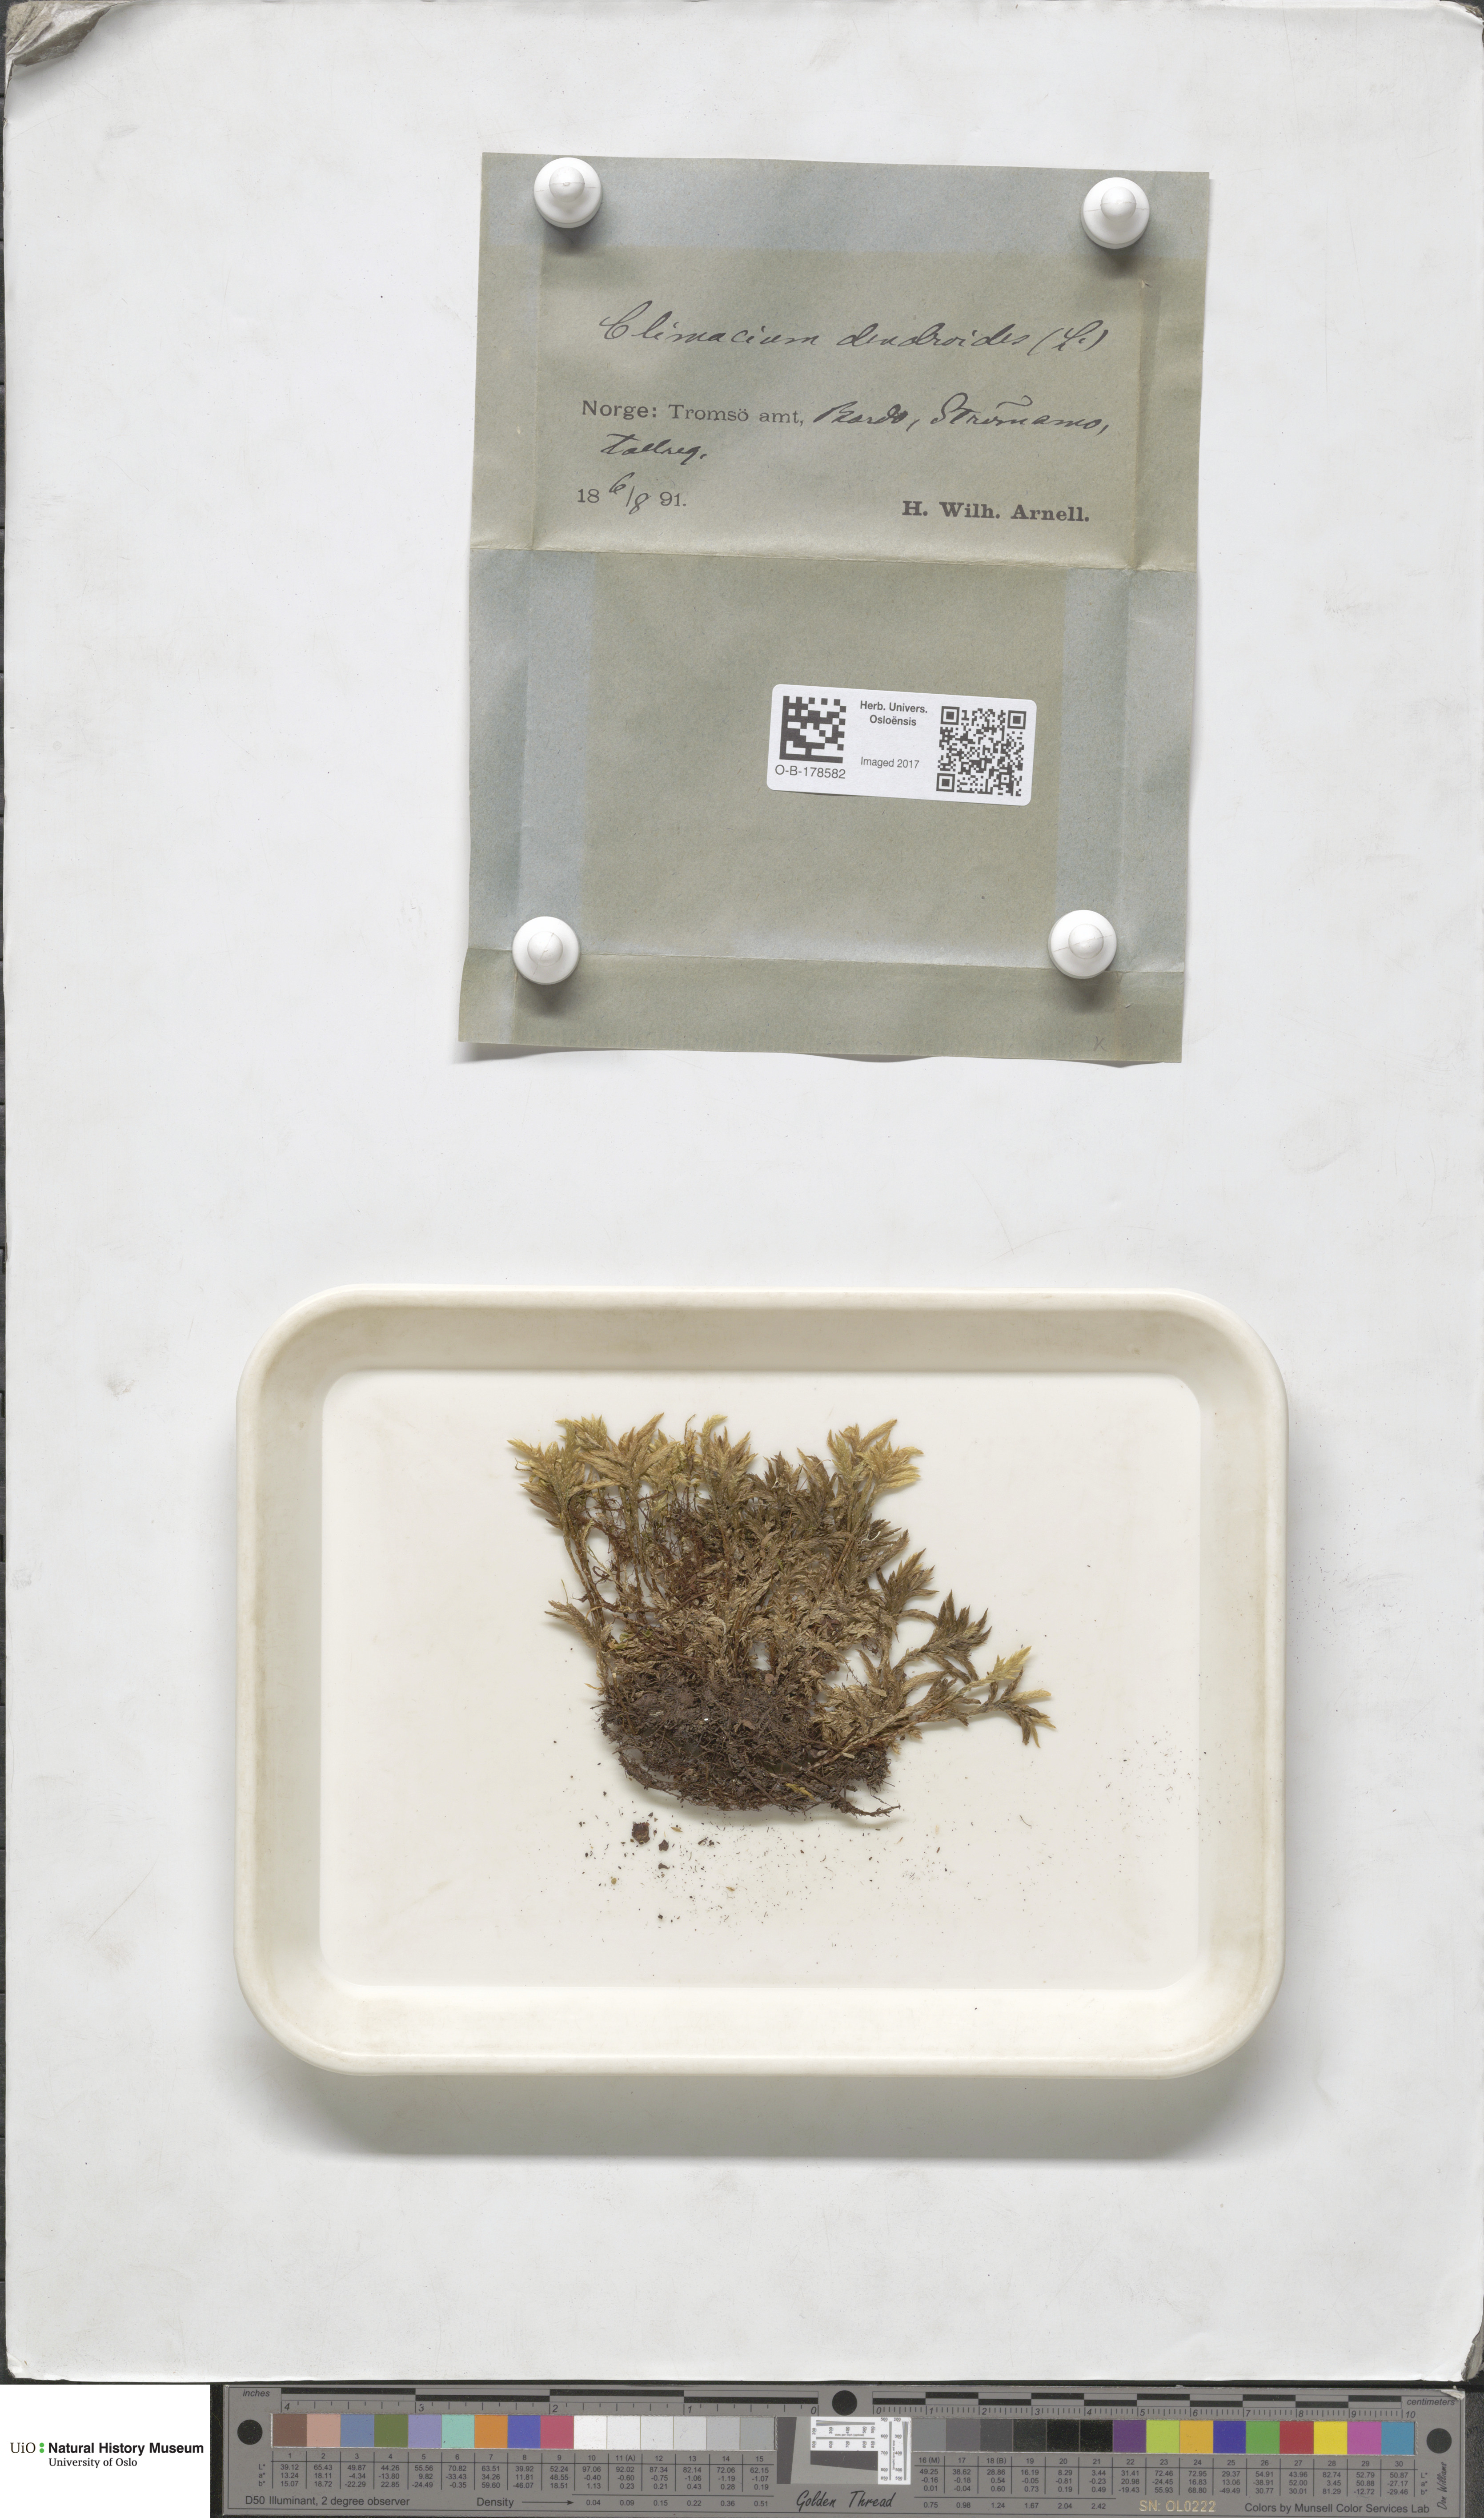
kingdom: Plantae
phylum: Bryophyta
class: Bryopsida
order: Hypnales
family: Climaciaceae
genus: Climacium
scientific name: Climacium dendroides
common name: Northern tree moss
